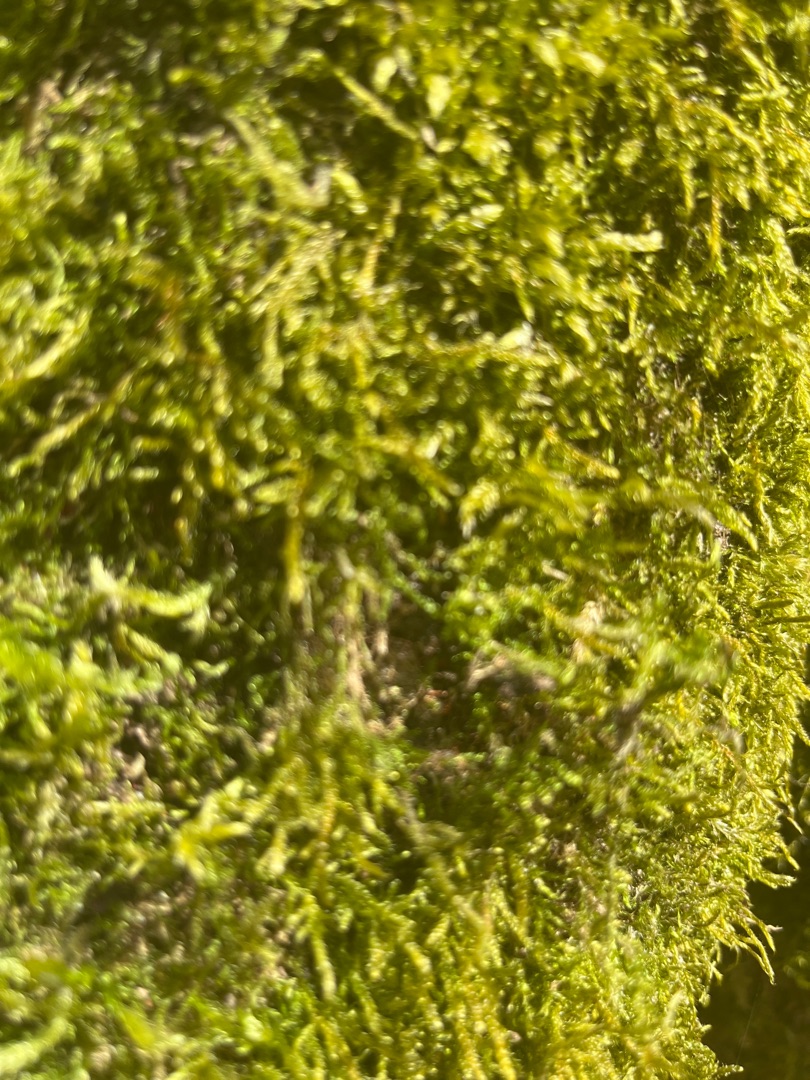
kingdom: Plantae
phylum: Bryophyta
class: Bryopsida
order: Hypnales
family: Hypnaceae
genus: Hypnum
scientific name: Hypnum
